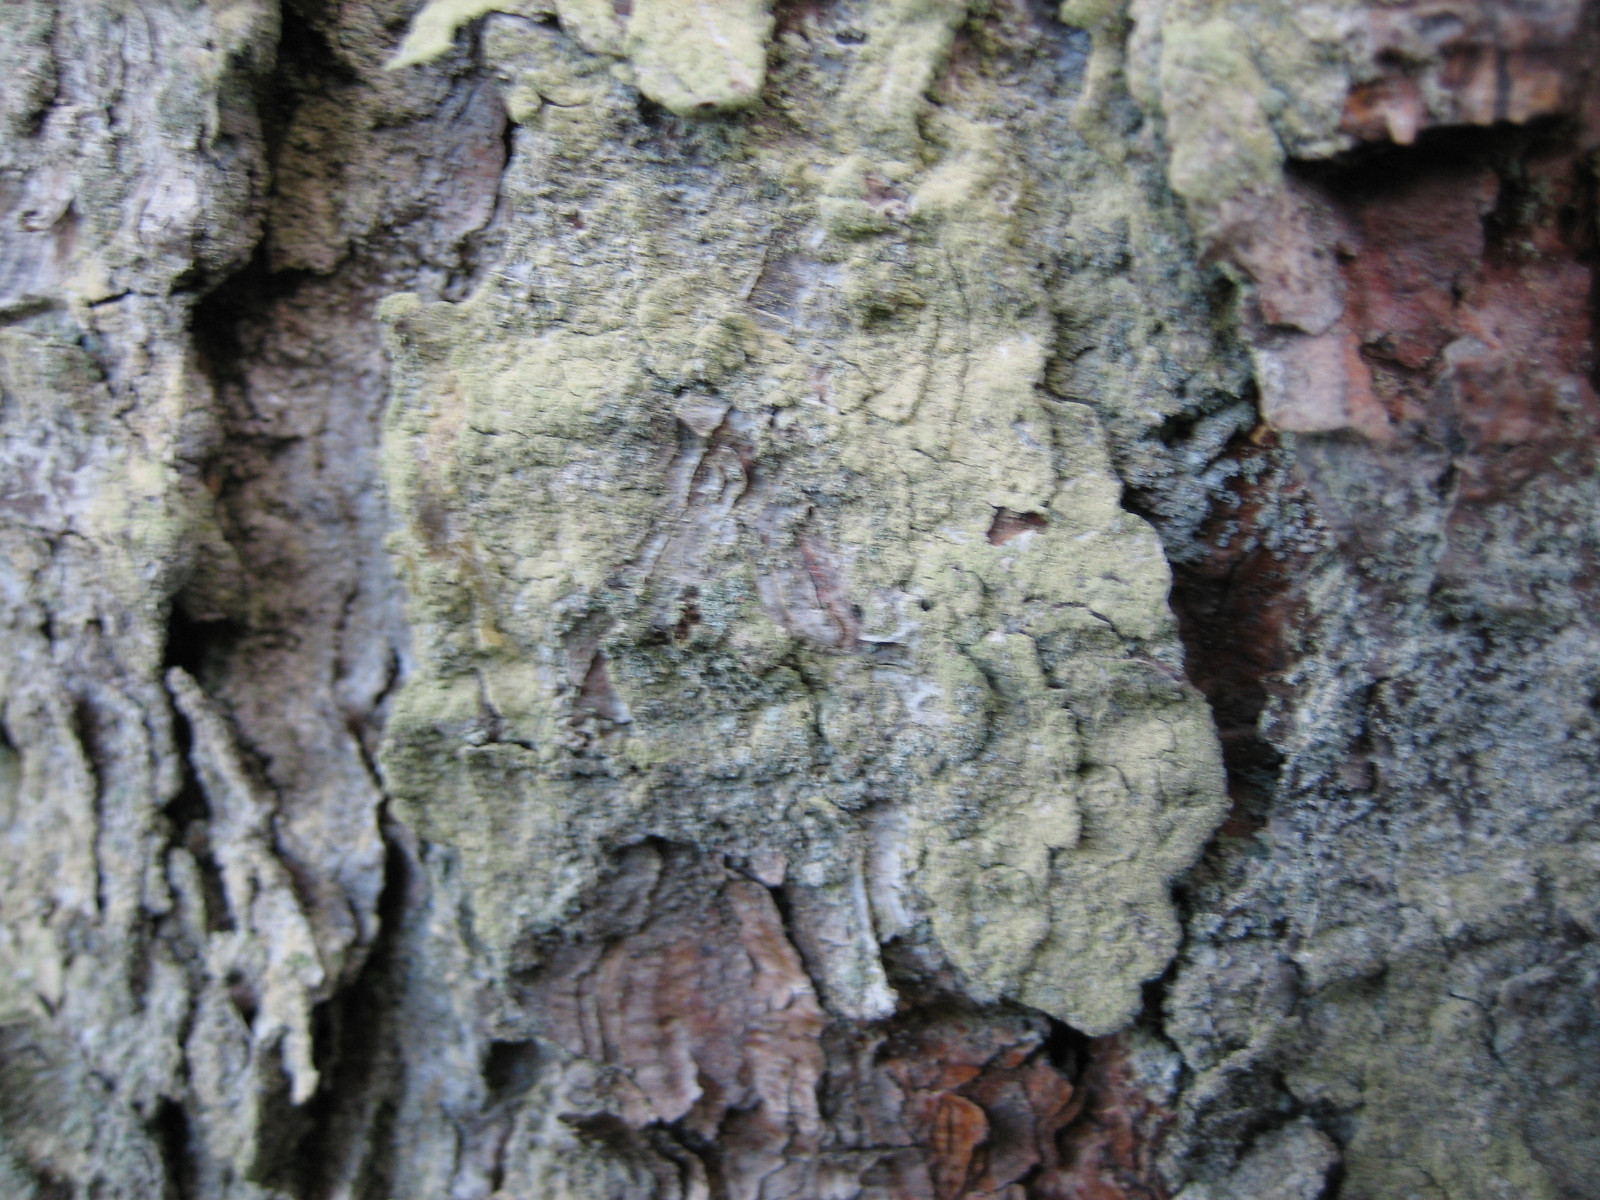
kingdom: Fungi
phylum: Ascomycota
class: Lecanoromycetes
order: Lecanorales
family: Lecanoraceae
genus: Lecanora
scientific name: Lecanora expallens
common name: bleggul kantskivelav
